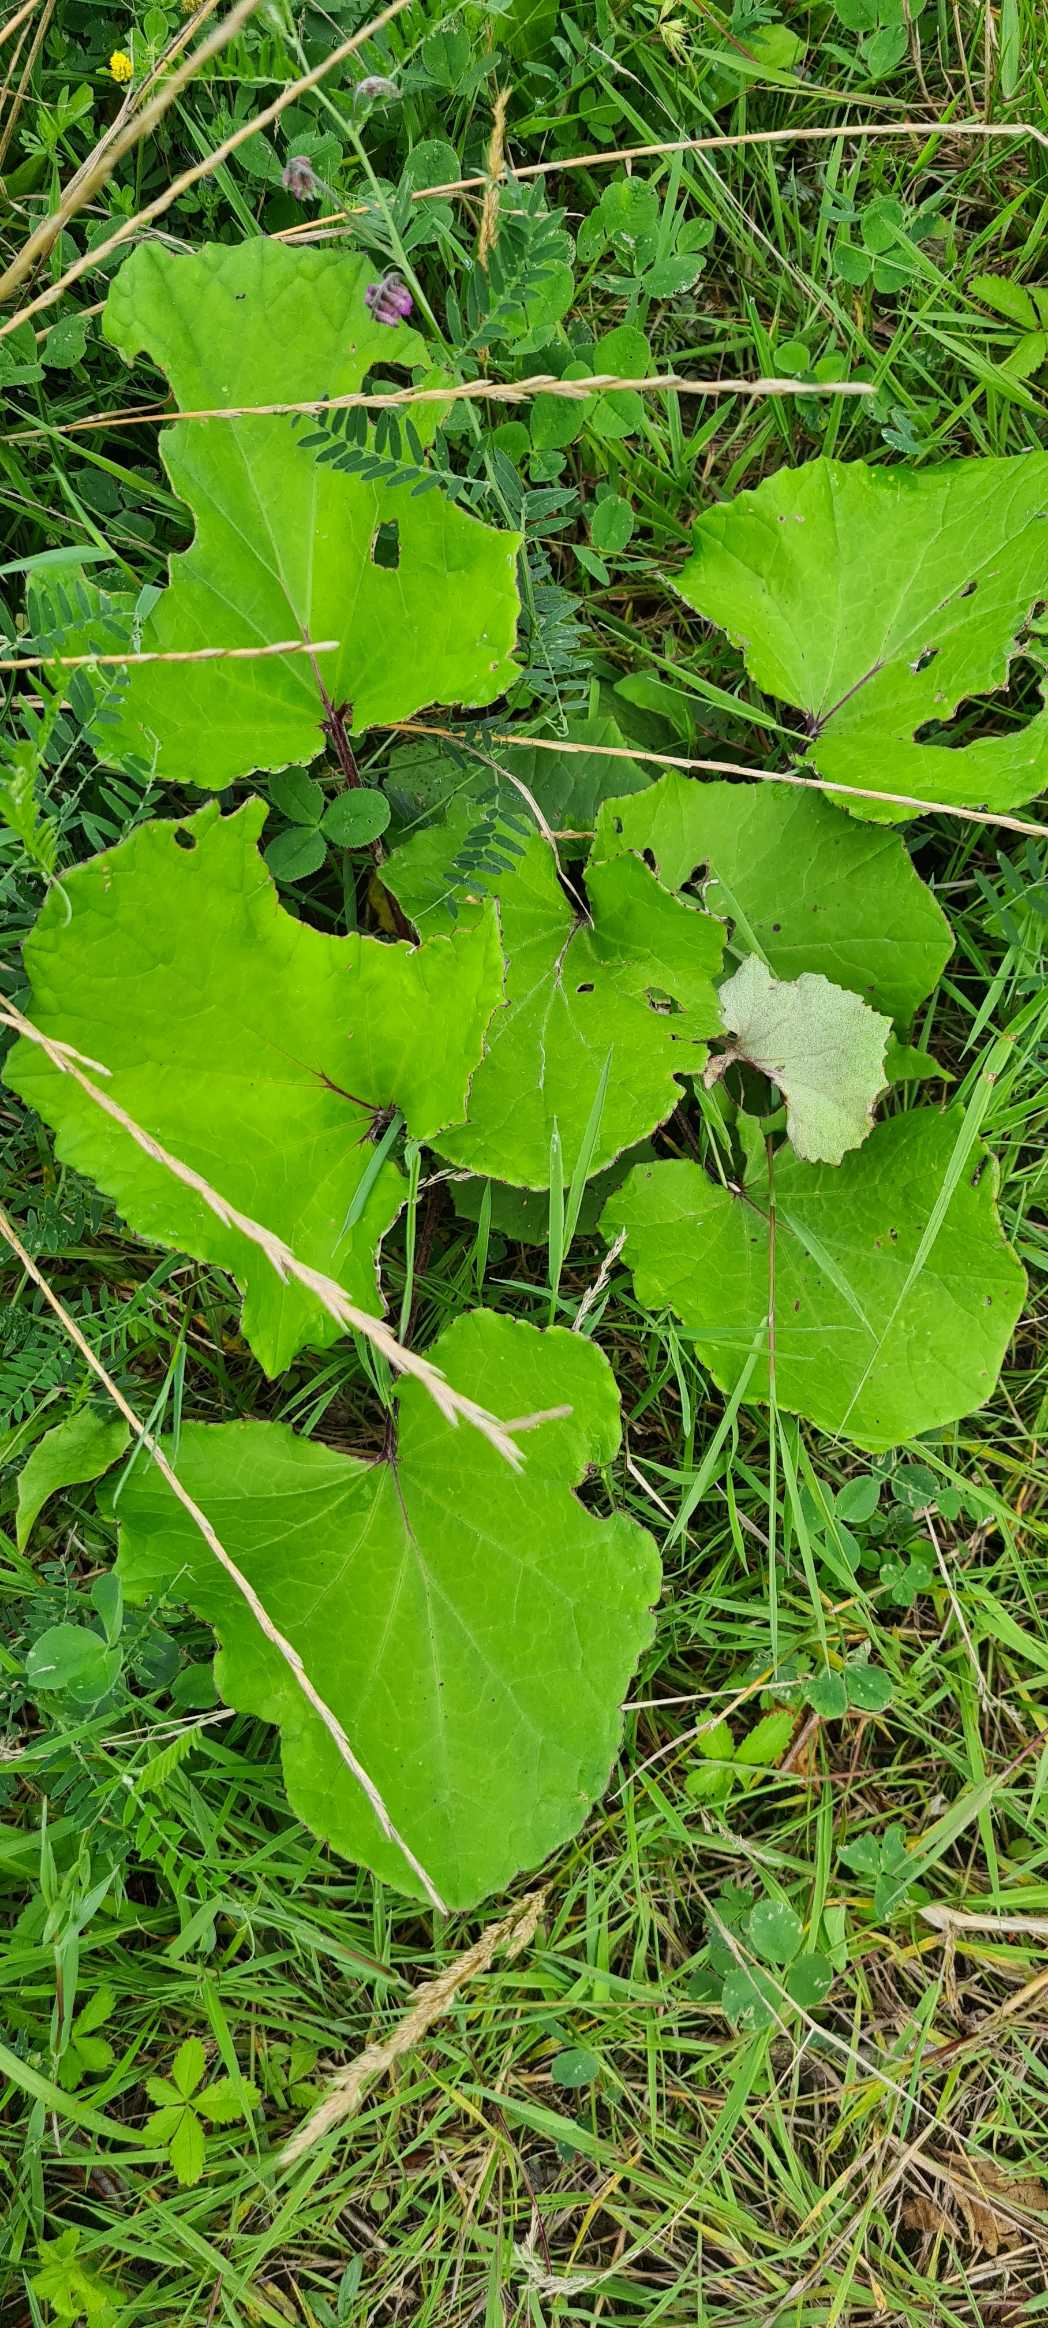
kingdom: Plantae
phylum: Tracheophyta
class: Magnoliopsida
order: Asterales
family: Asteraceae
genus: Tussilago
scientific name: Tussilago farfara
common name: Følfod
